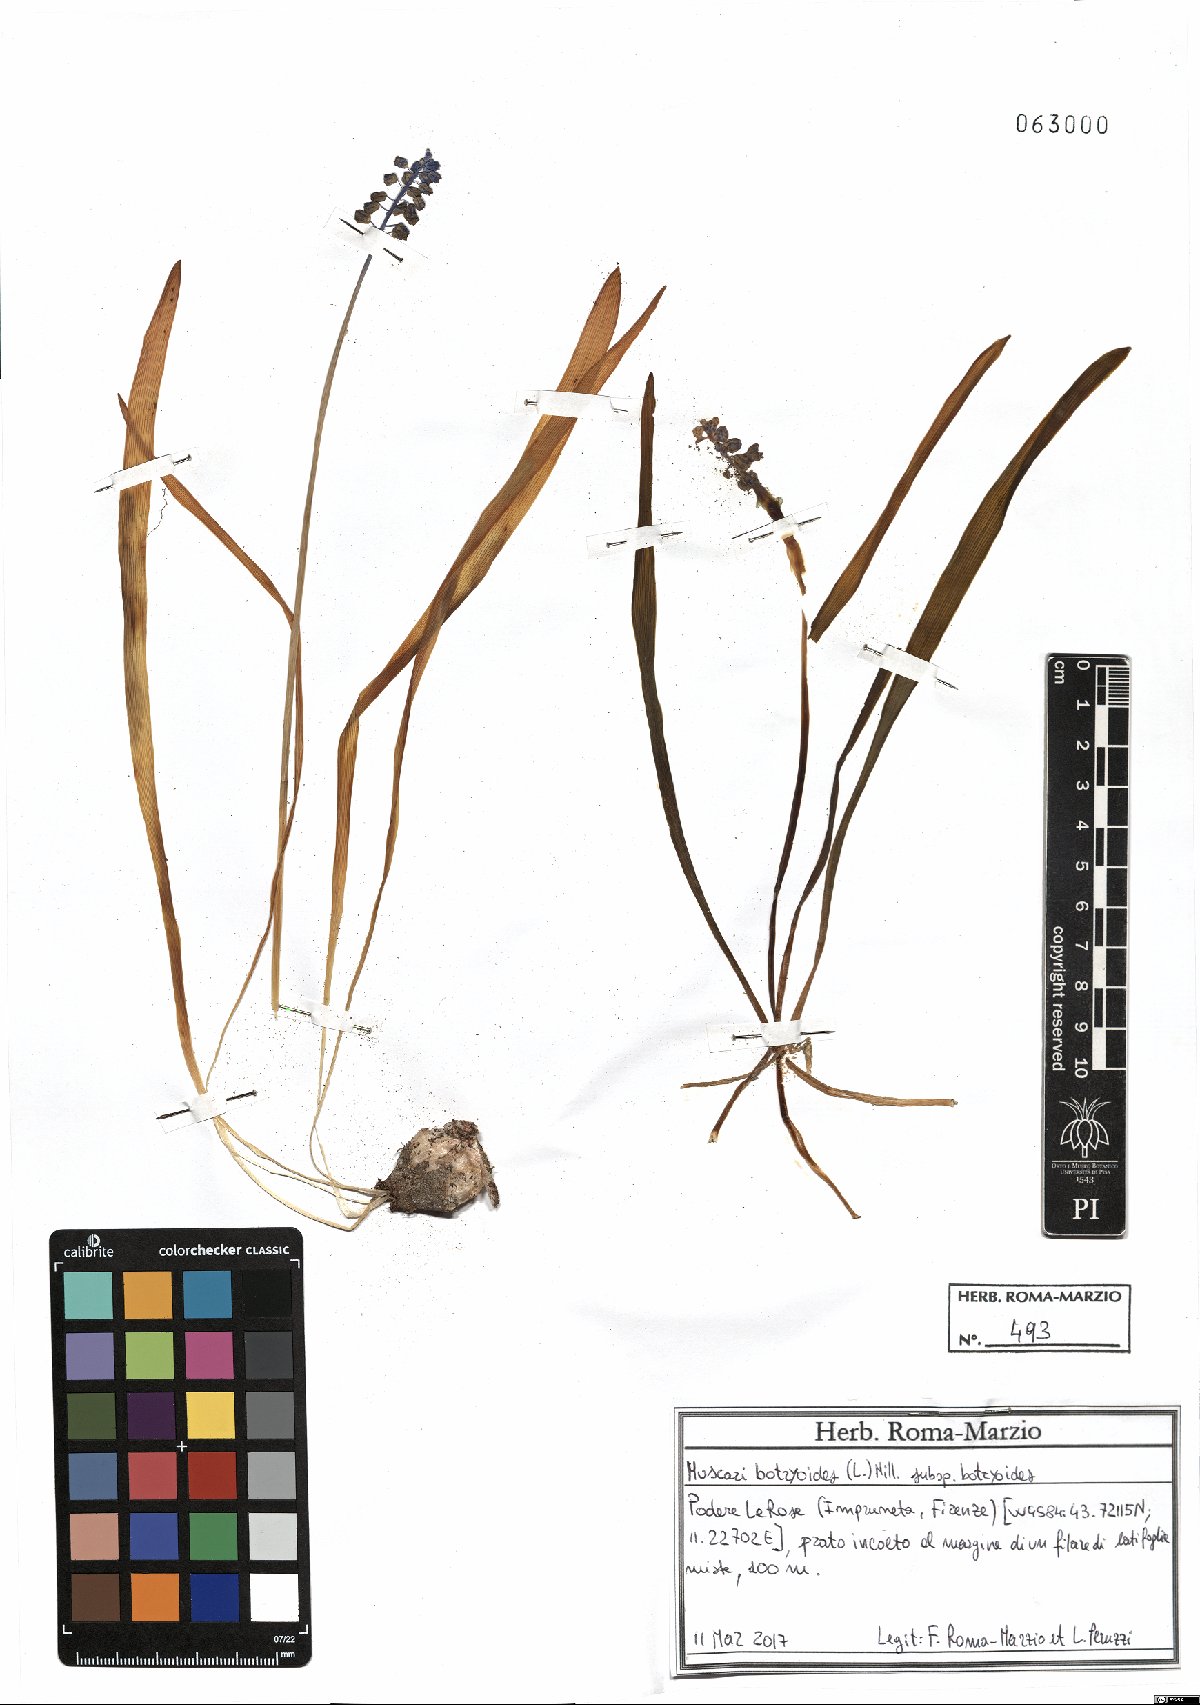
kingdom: Plantae
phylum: Tracheophyta
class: Liliopsida
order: Asparagales
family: Asparagaceae
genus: Muscari
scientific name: Muscari botryoides
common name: Compact grape-hyacinth
